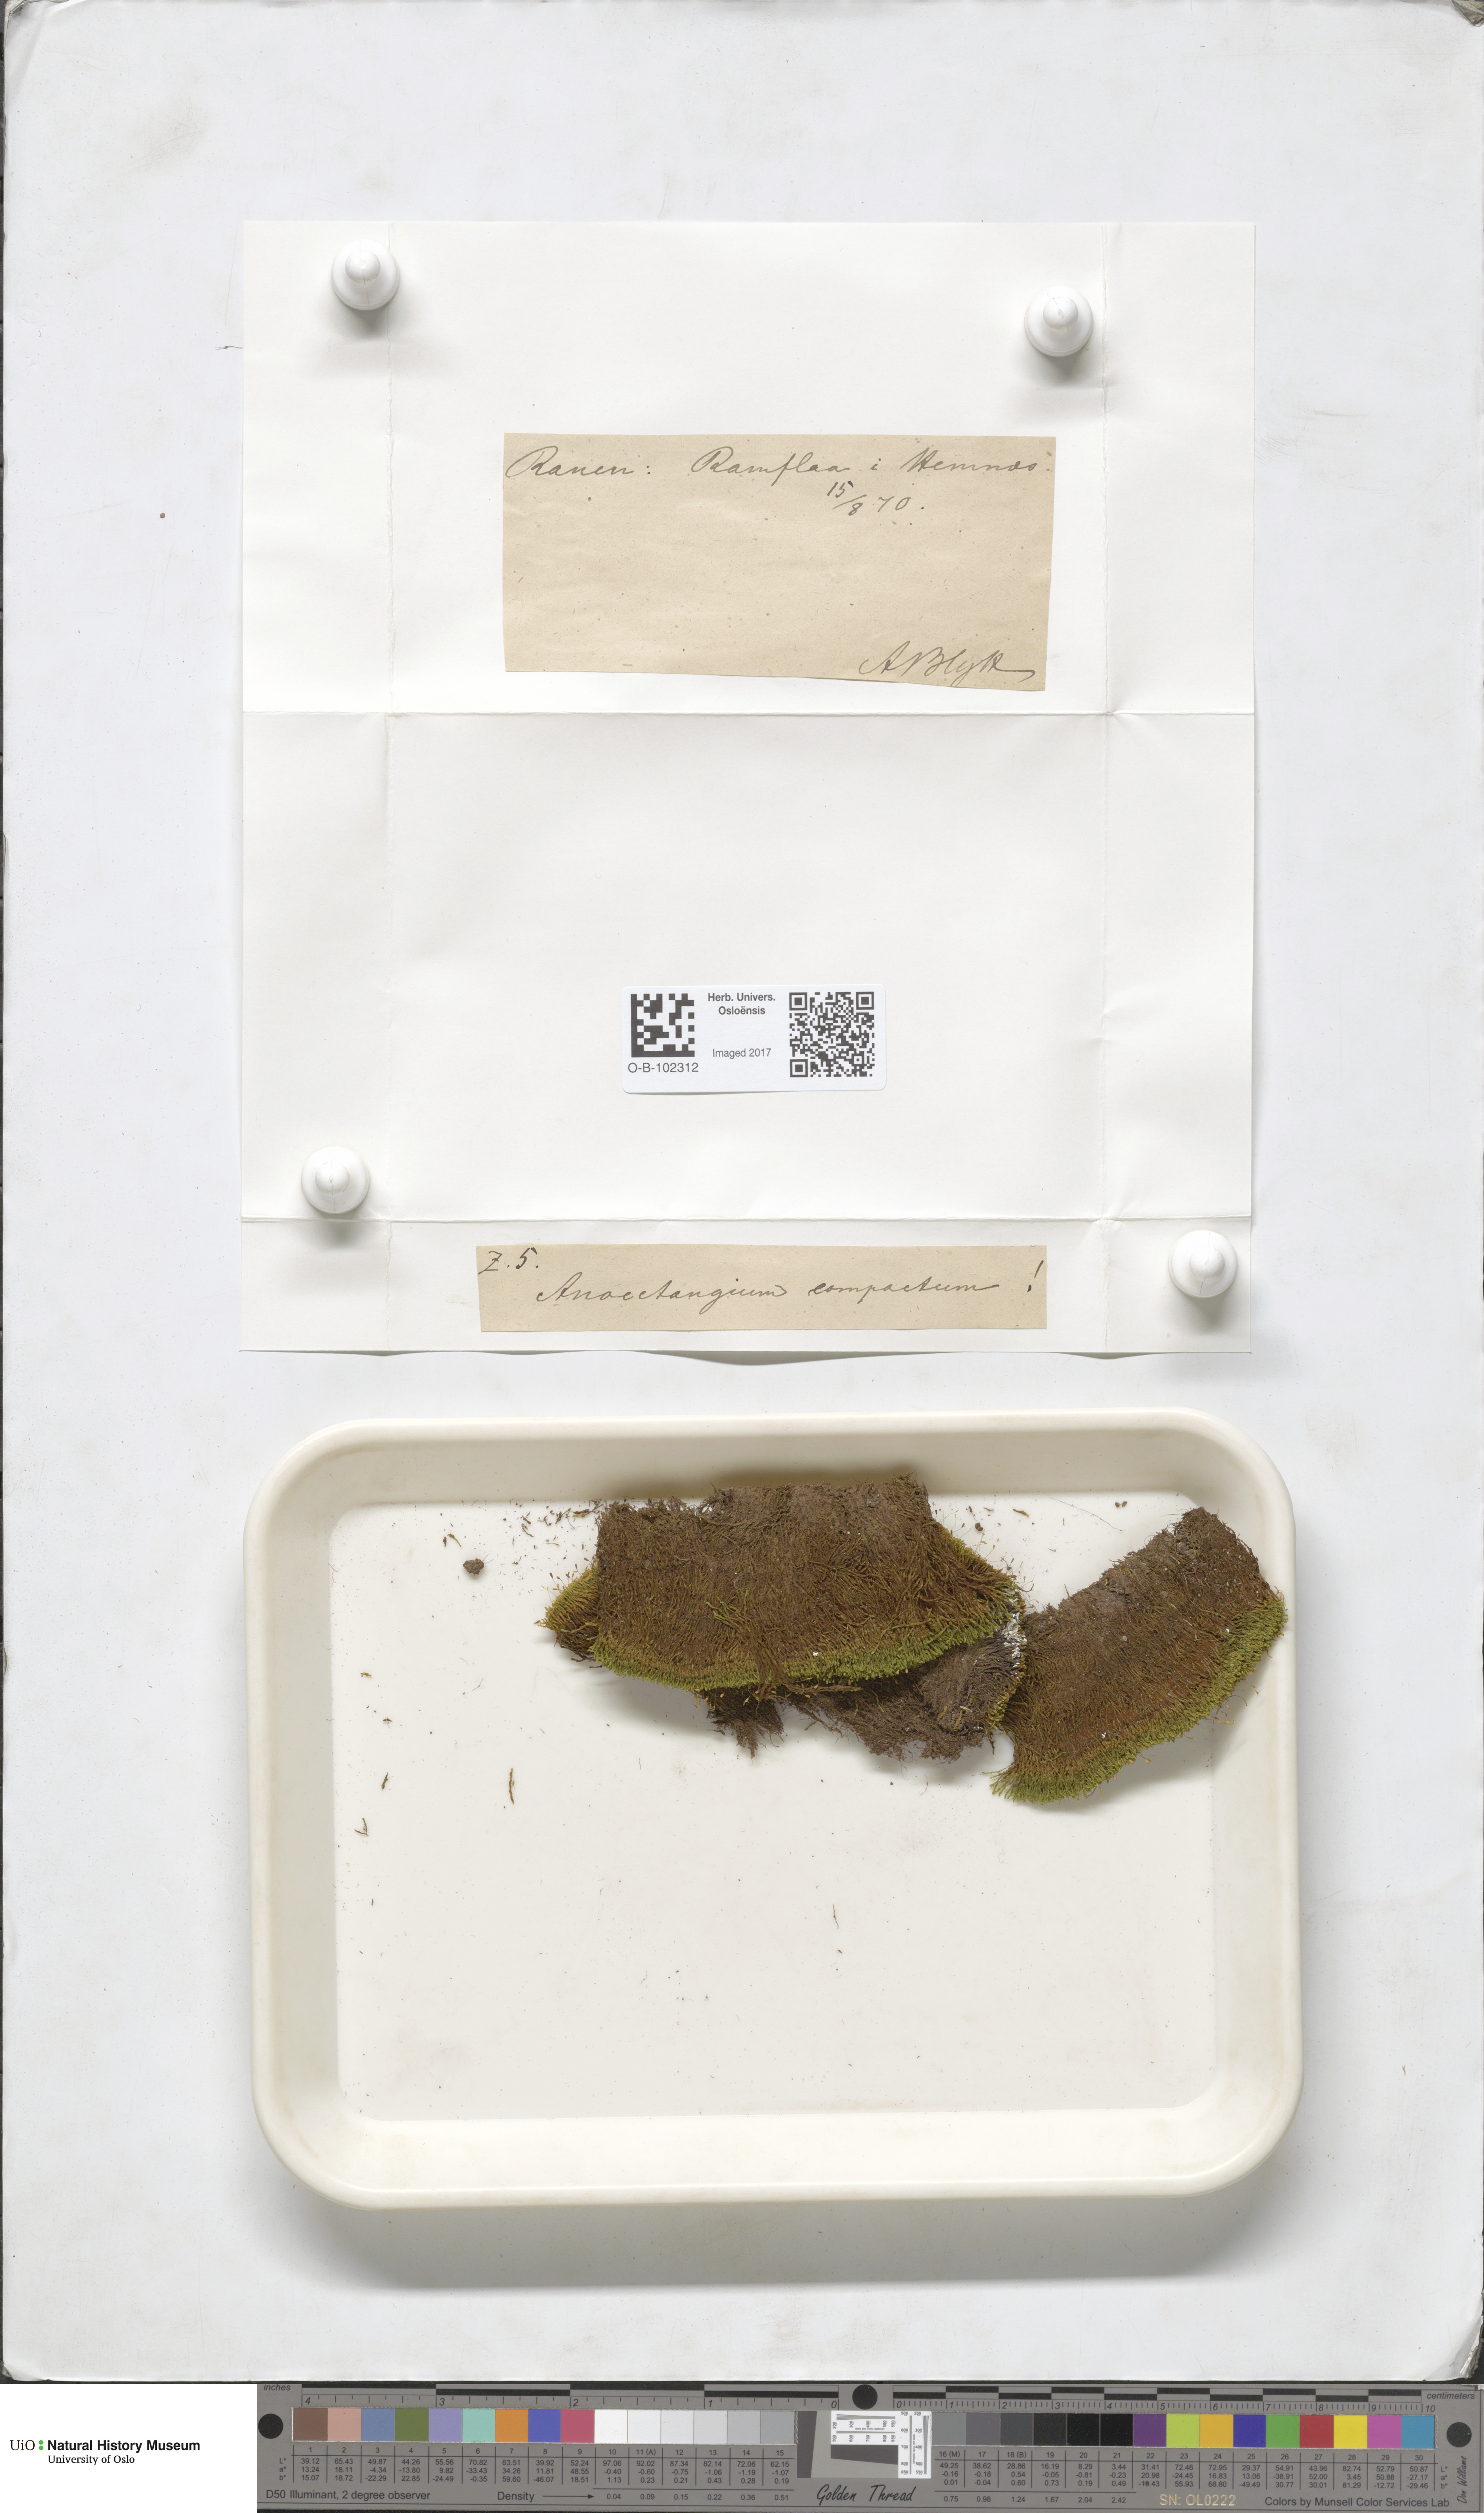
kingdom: Plantae
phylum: Bryophyta
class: Bryopsida
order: Pottiales
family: Pottiaceae
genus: Anoectangium
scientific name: Anoectangium aestivum
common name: Summer-moss
